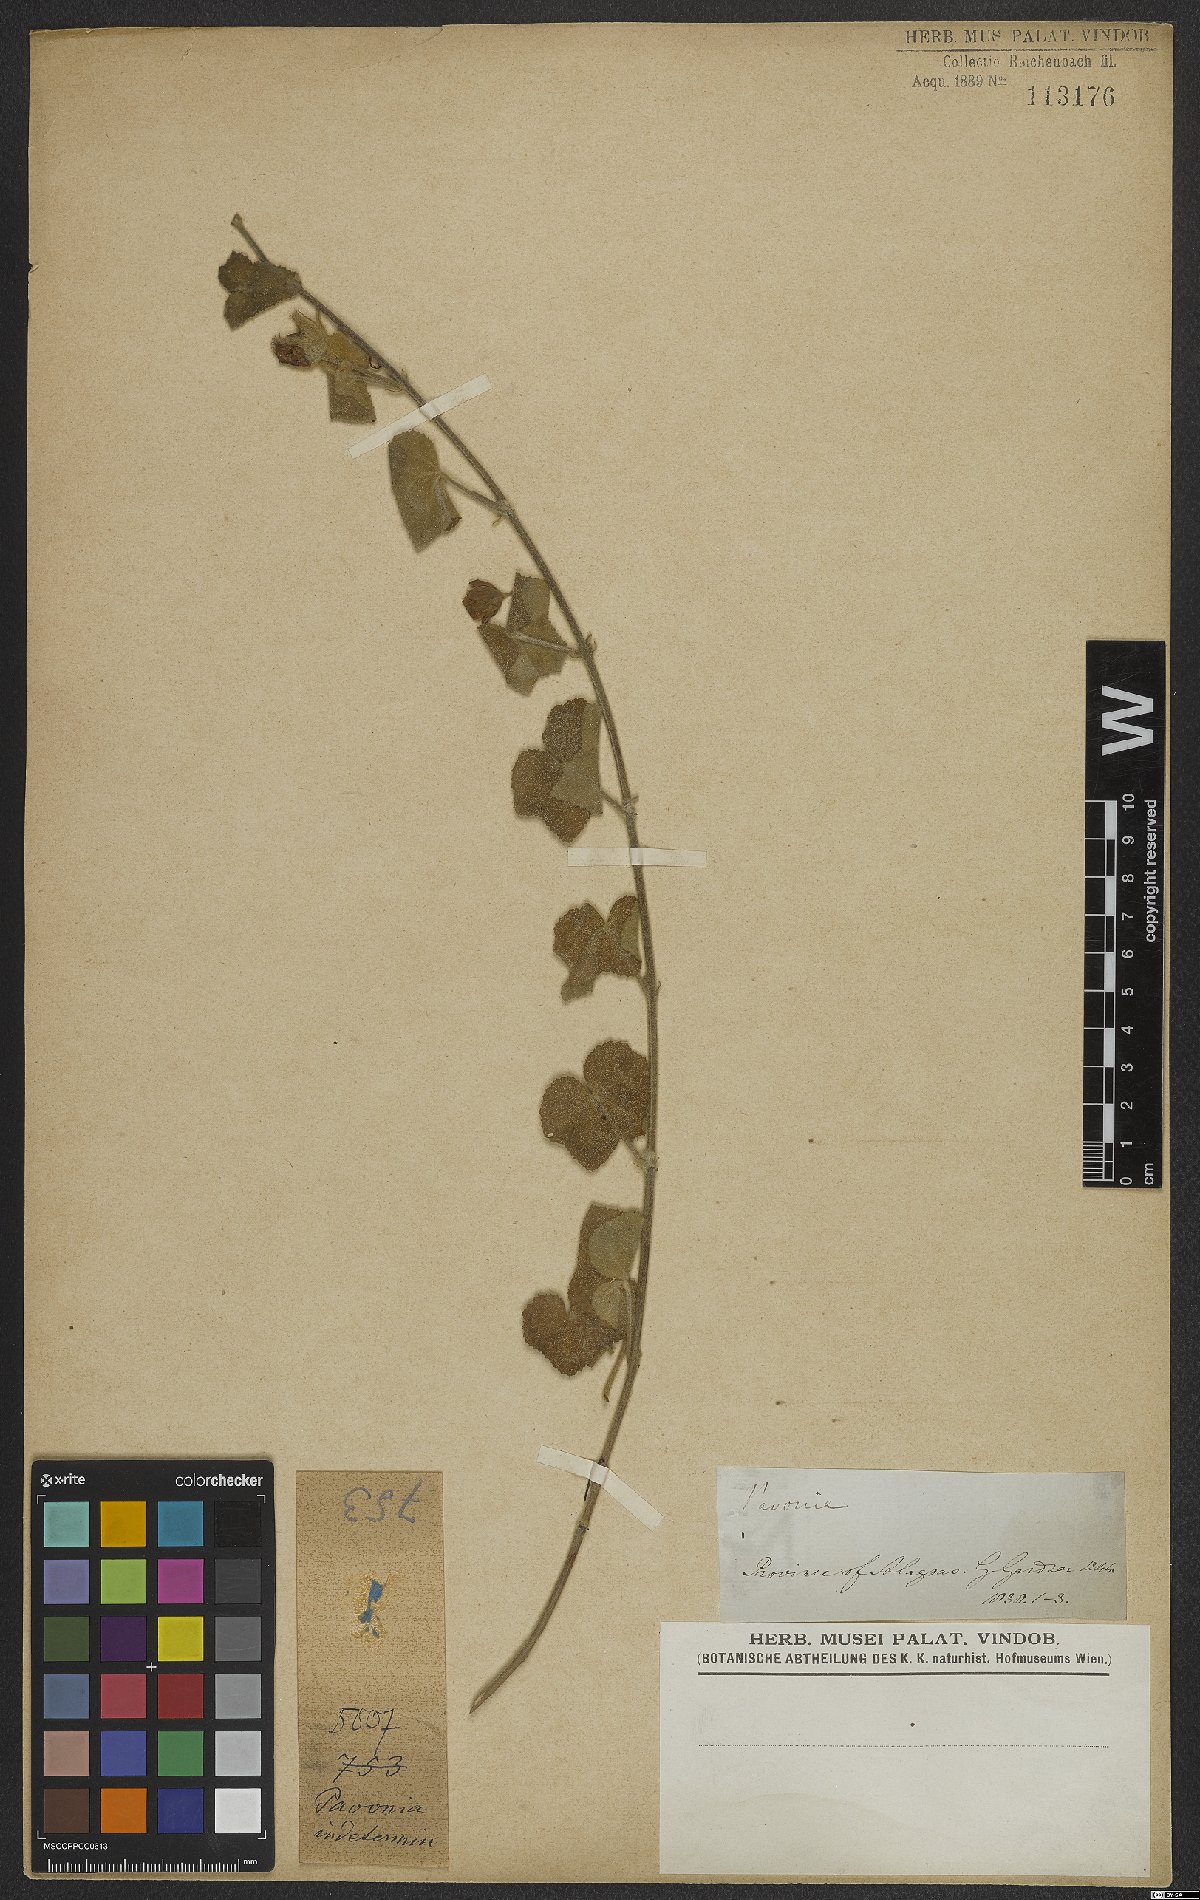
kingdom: Plantae
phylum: Tracheophyta
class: Magnoliopsida
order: Malvales
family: Malvaceae
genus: Pavonia
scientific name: Pavonia
